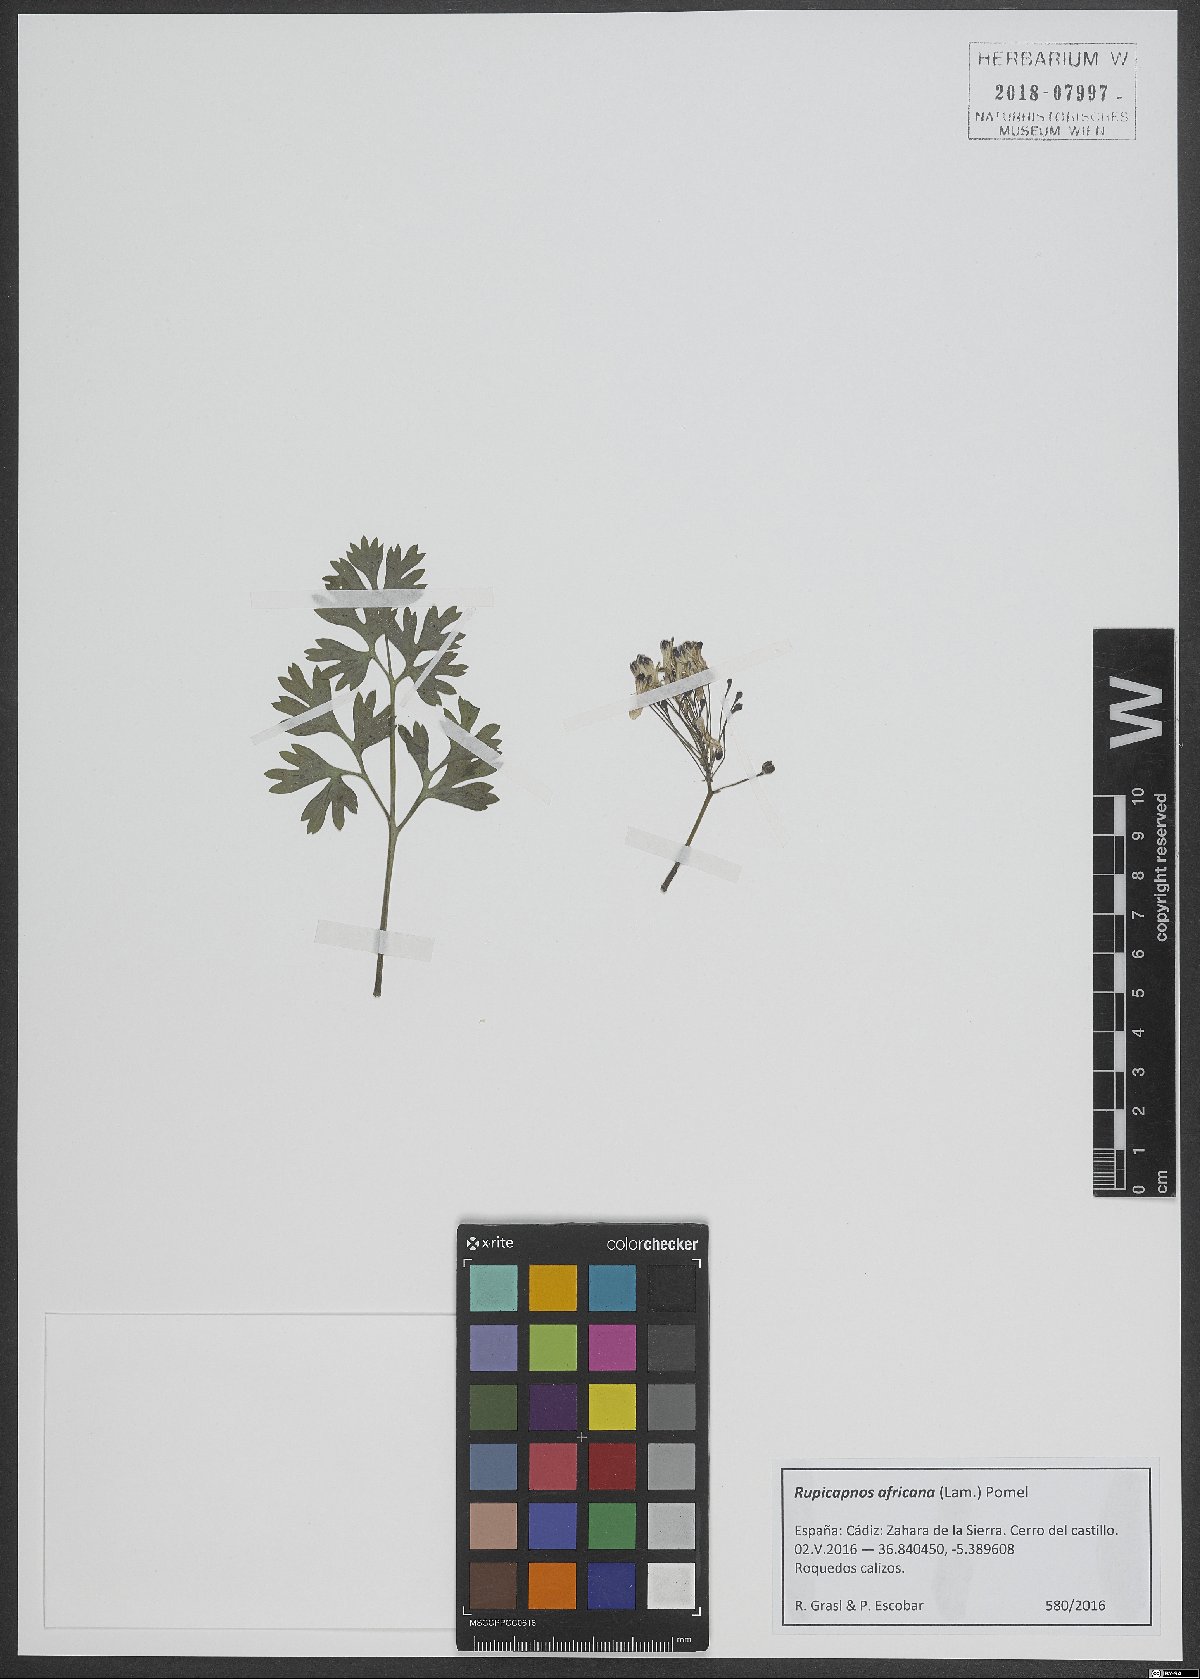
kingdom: Plantae
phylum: Tracheophyta
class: Magnoliopsida
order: Ranunculales
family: Papaveraceae
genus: Rupicapnos
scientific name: Rupicapnos africana
